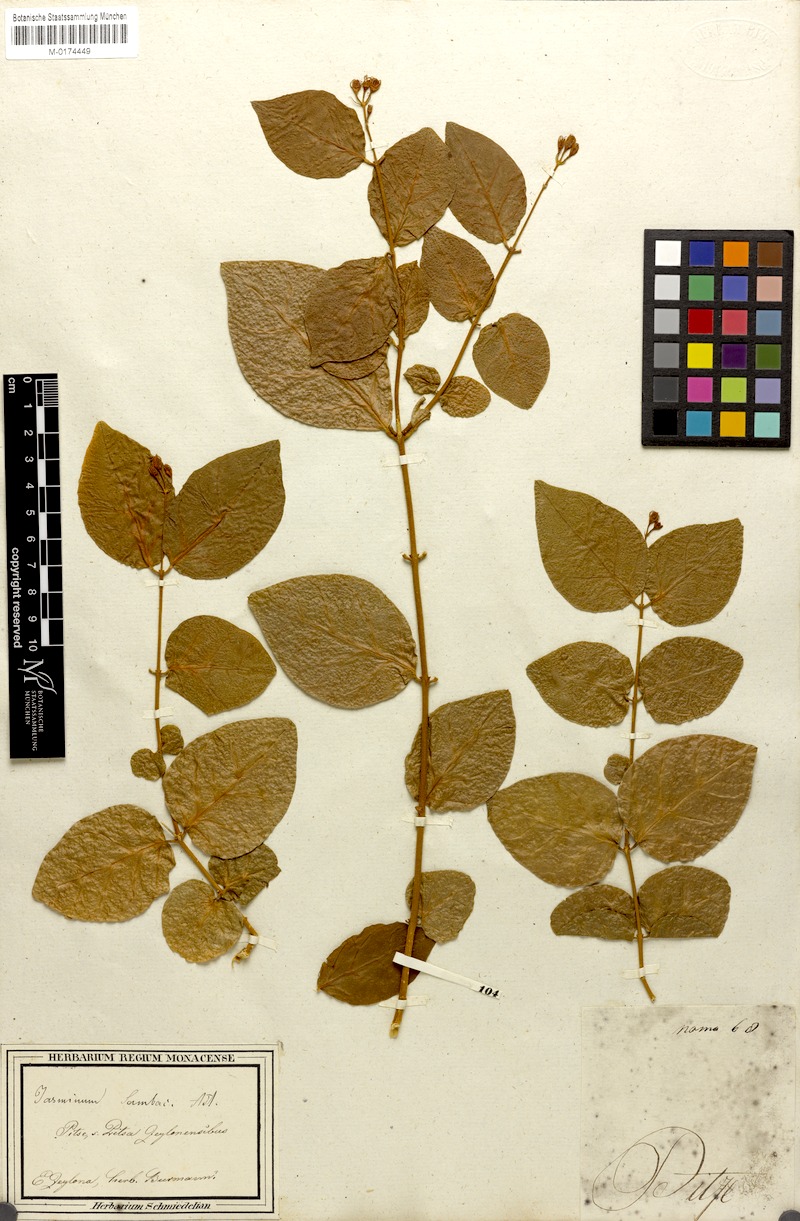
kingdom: Plantae
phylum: Tracheophyta
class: Magnoliopsida
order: Lamiales
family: Oleaceae
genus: Jasminum
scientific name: Jasminum sambac
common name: Arabian jasmine
